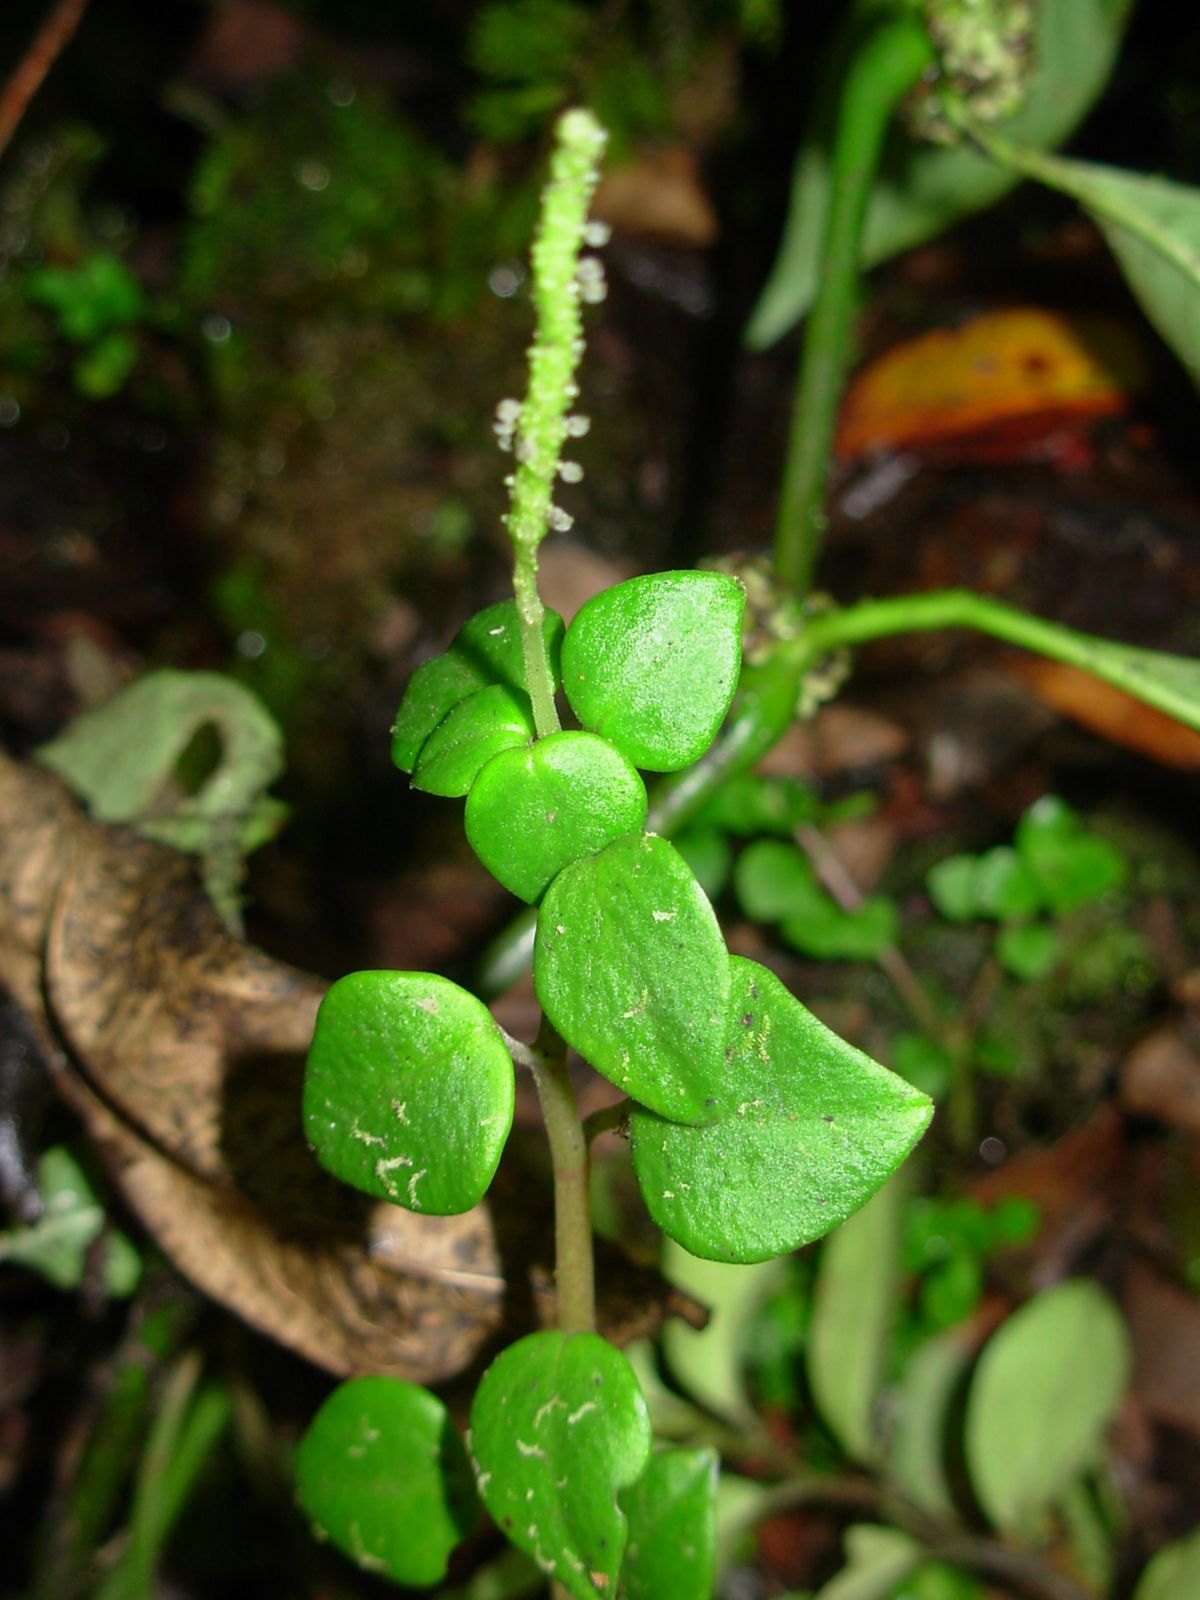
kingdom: Plantae
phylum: Tracheophyta
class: Magnoliopsida
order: Piperales
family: Piperaceae
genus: Peperomia
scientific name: Peperomia
